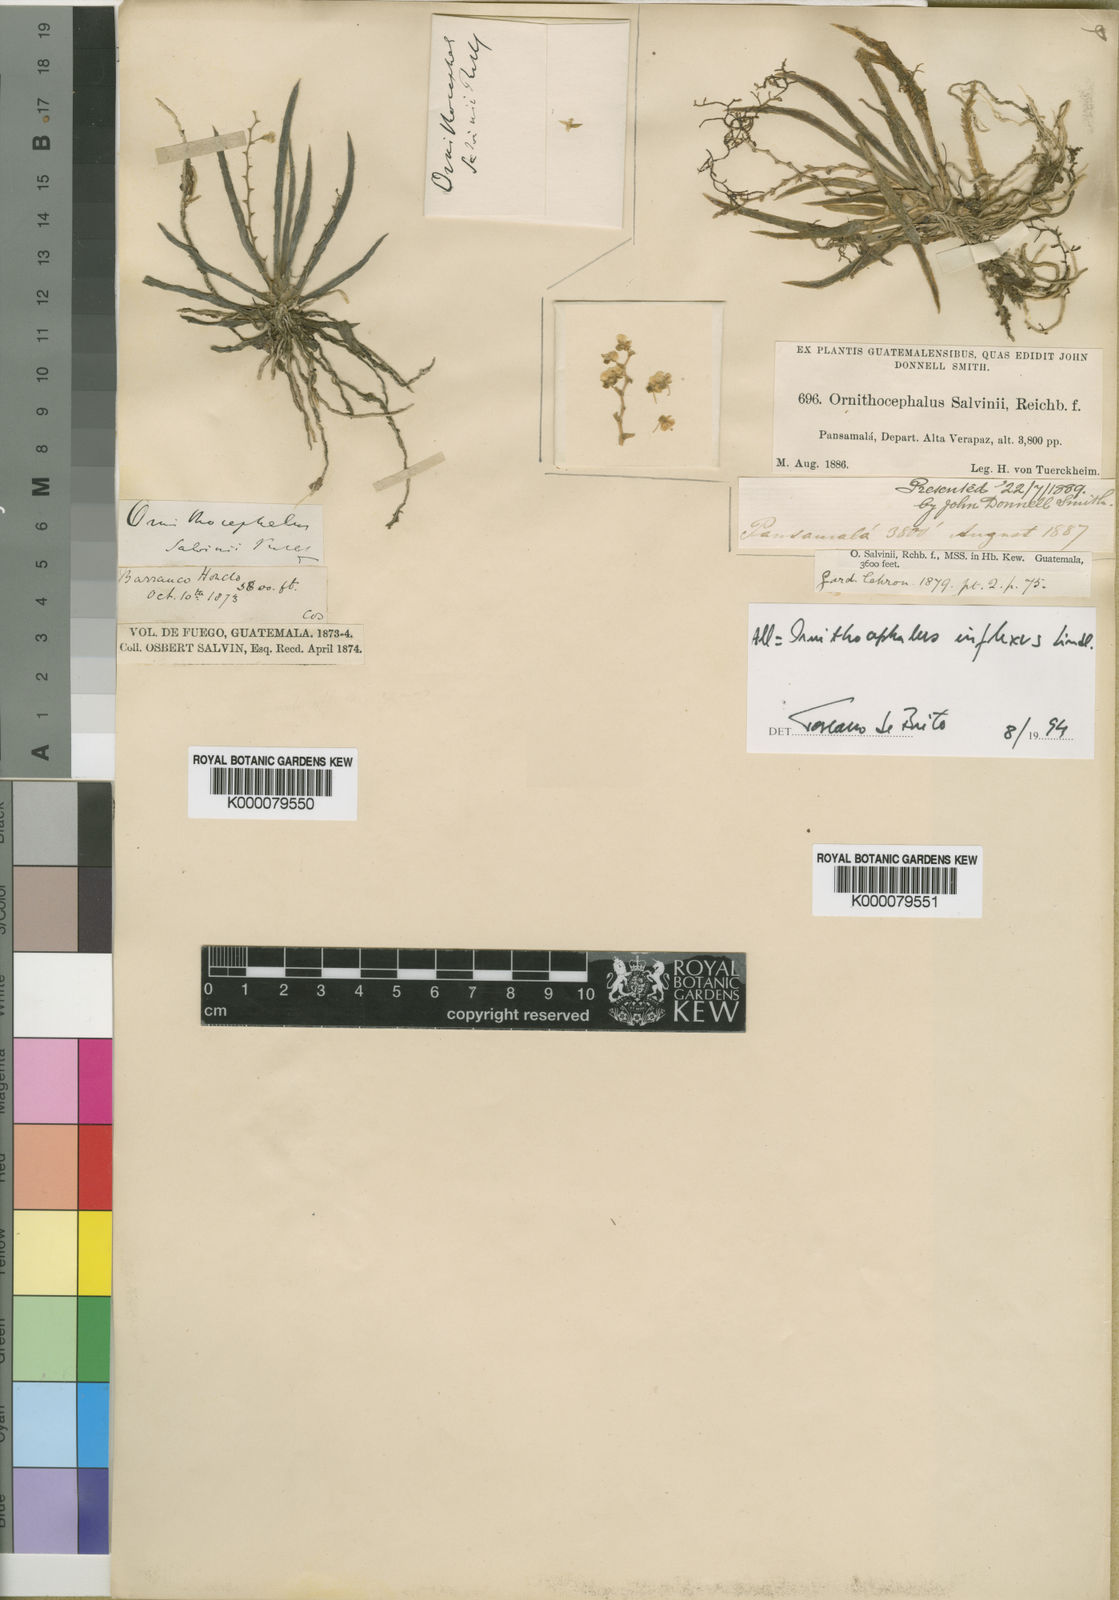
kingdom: Plantae
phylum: Tracheophyta
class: Liliopsida
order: Asparagales
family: Orchidaceae
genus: Ornithocephalus
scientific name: Ornithocephalus inflexus
